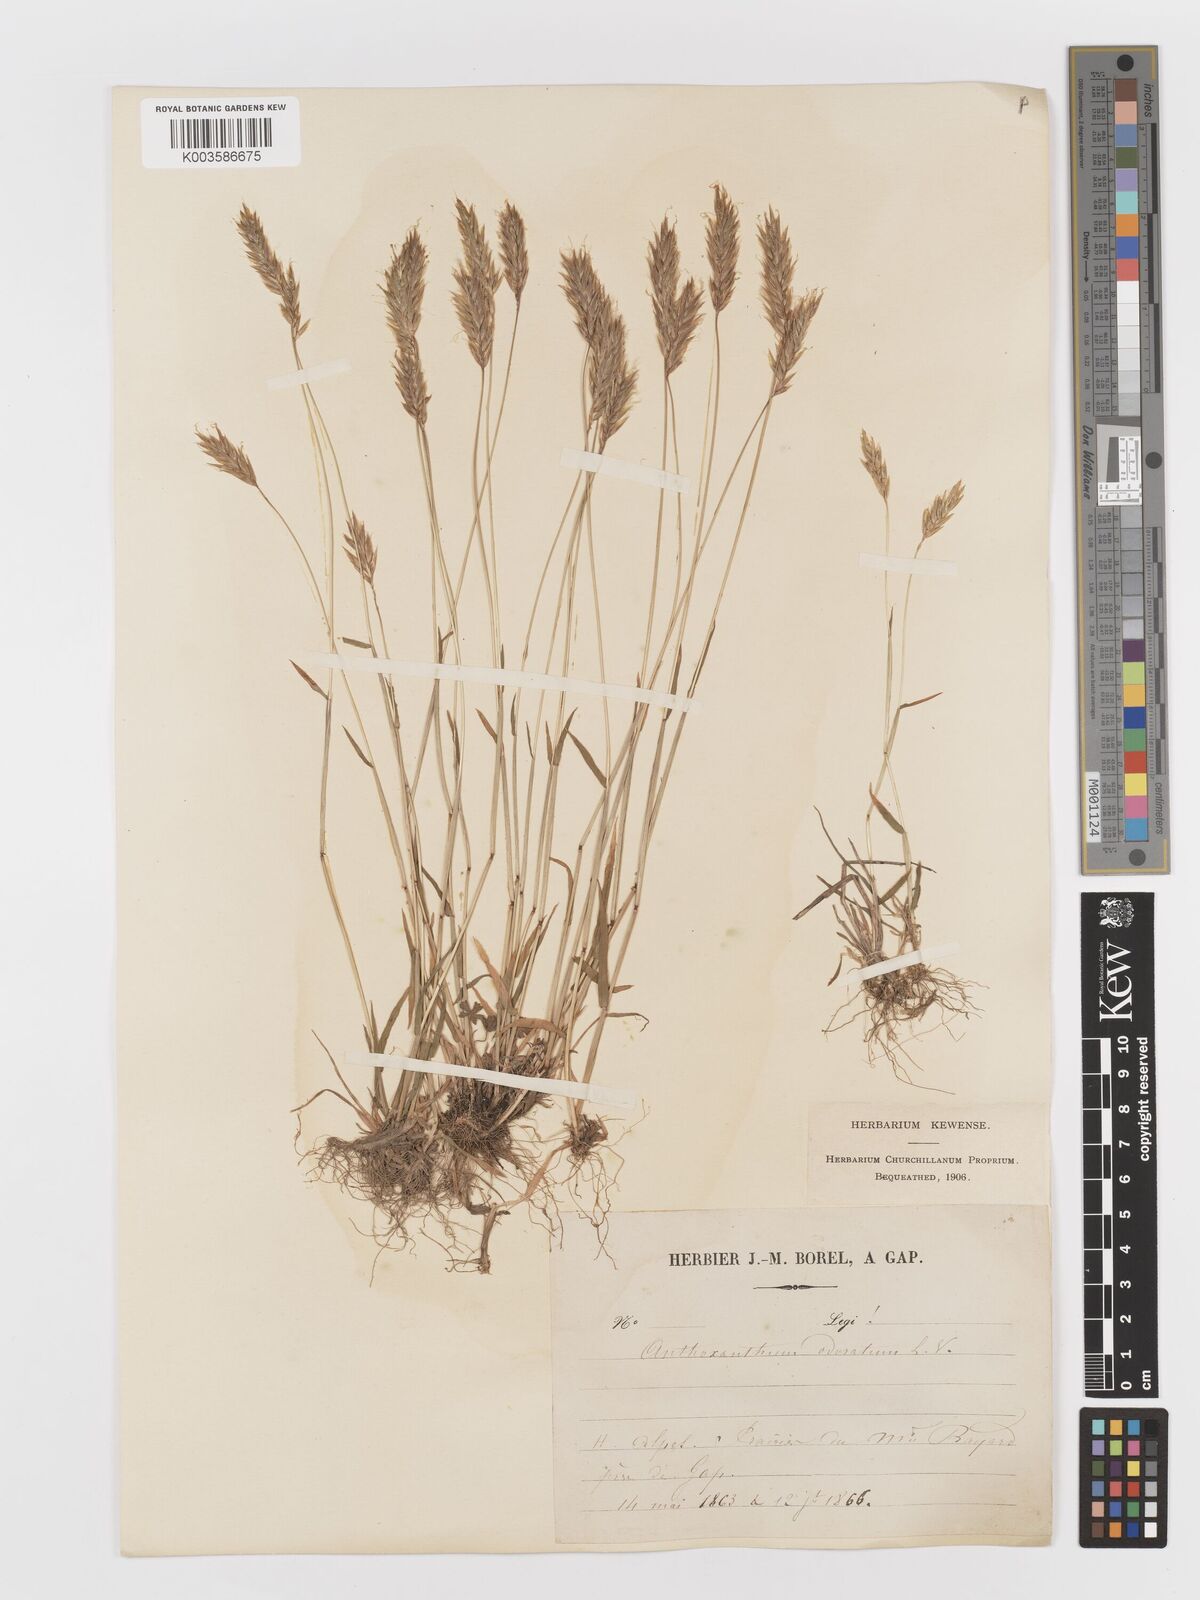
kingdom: Plantae
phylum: Tracheophyta
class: Liliopsida
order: Poales
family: Poaceae
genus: Anthoxanthum
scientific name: Anthoxanthum odoratum
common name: Sweet vernalgrass
